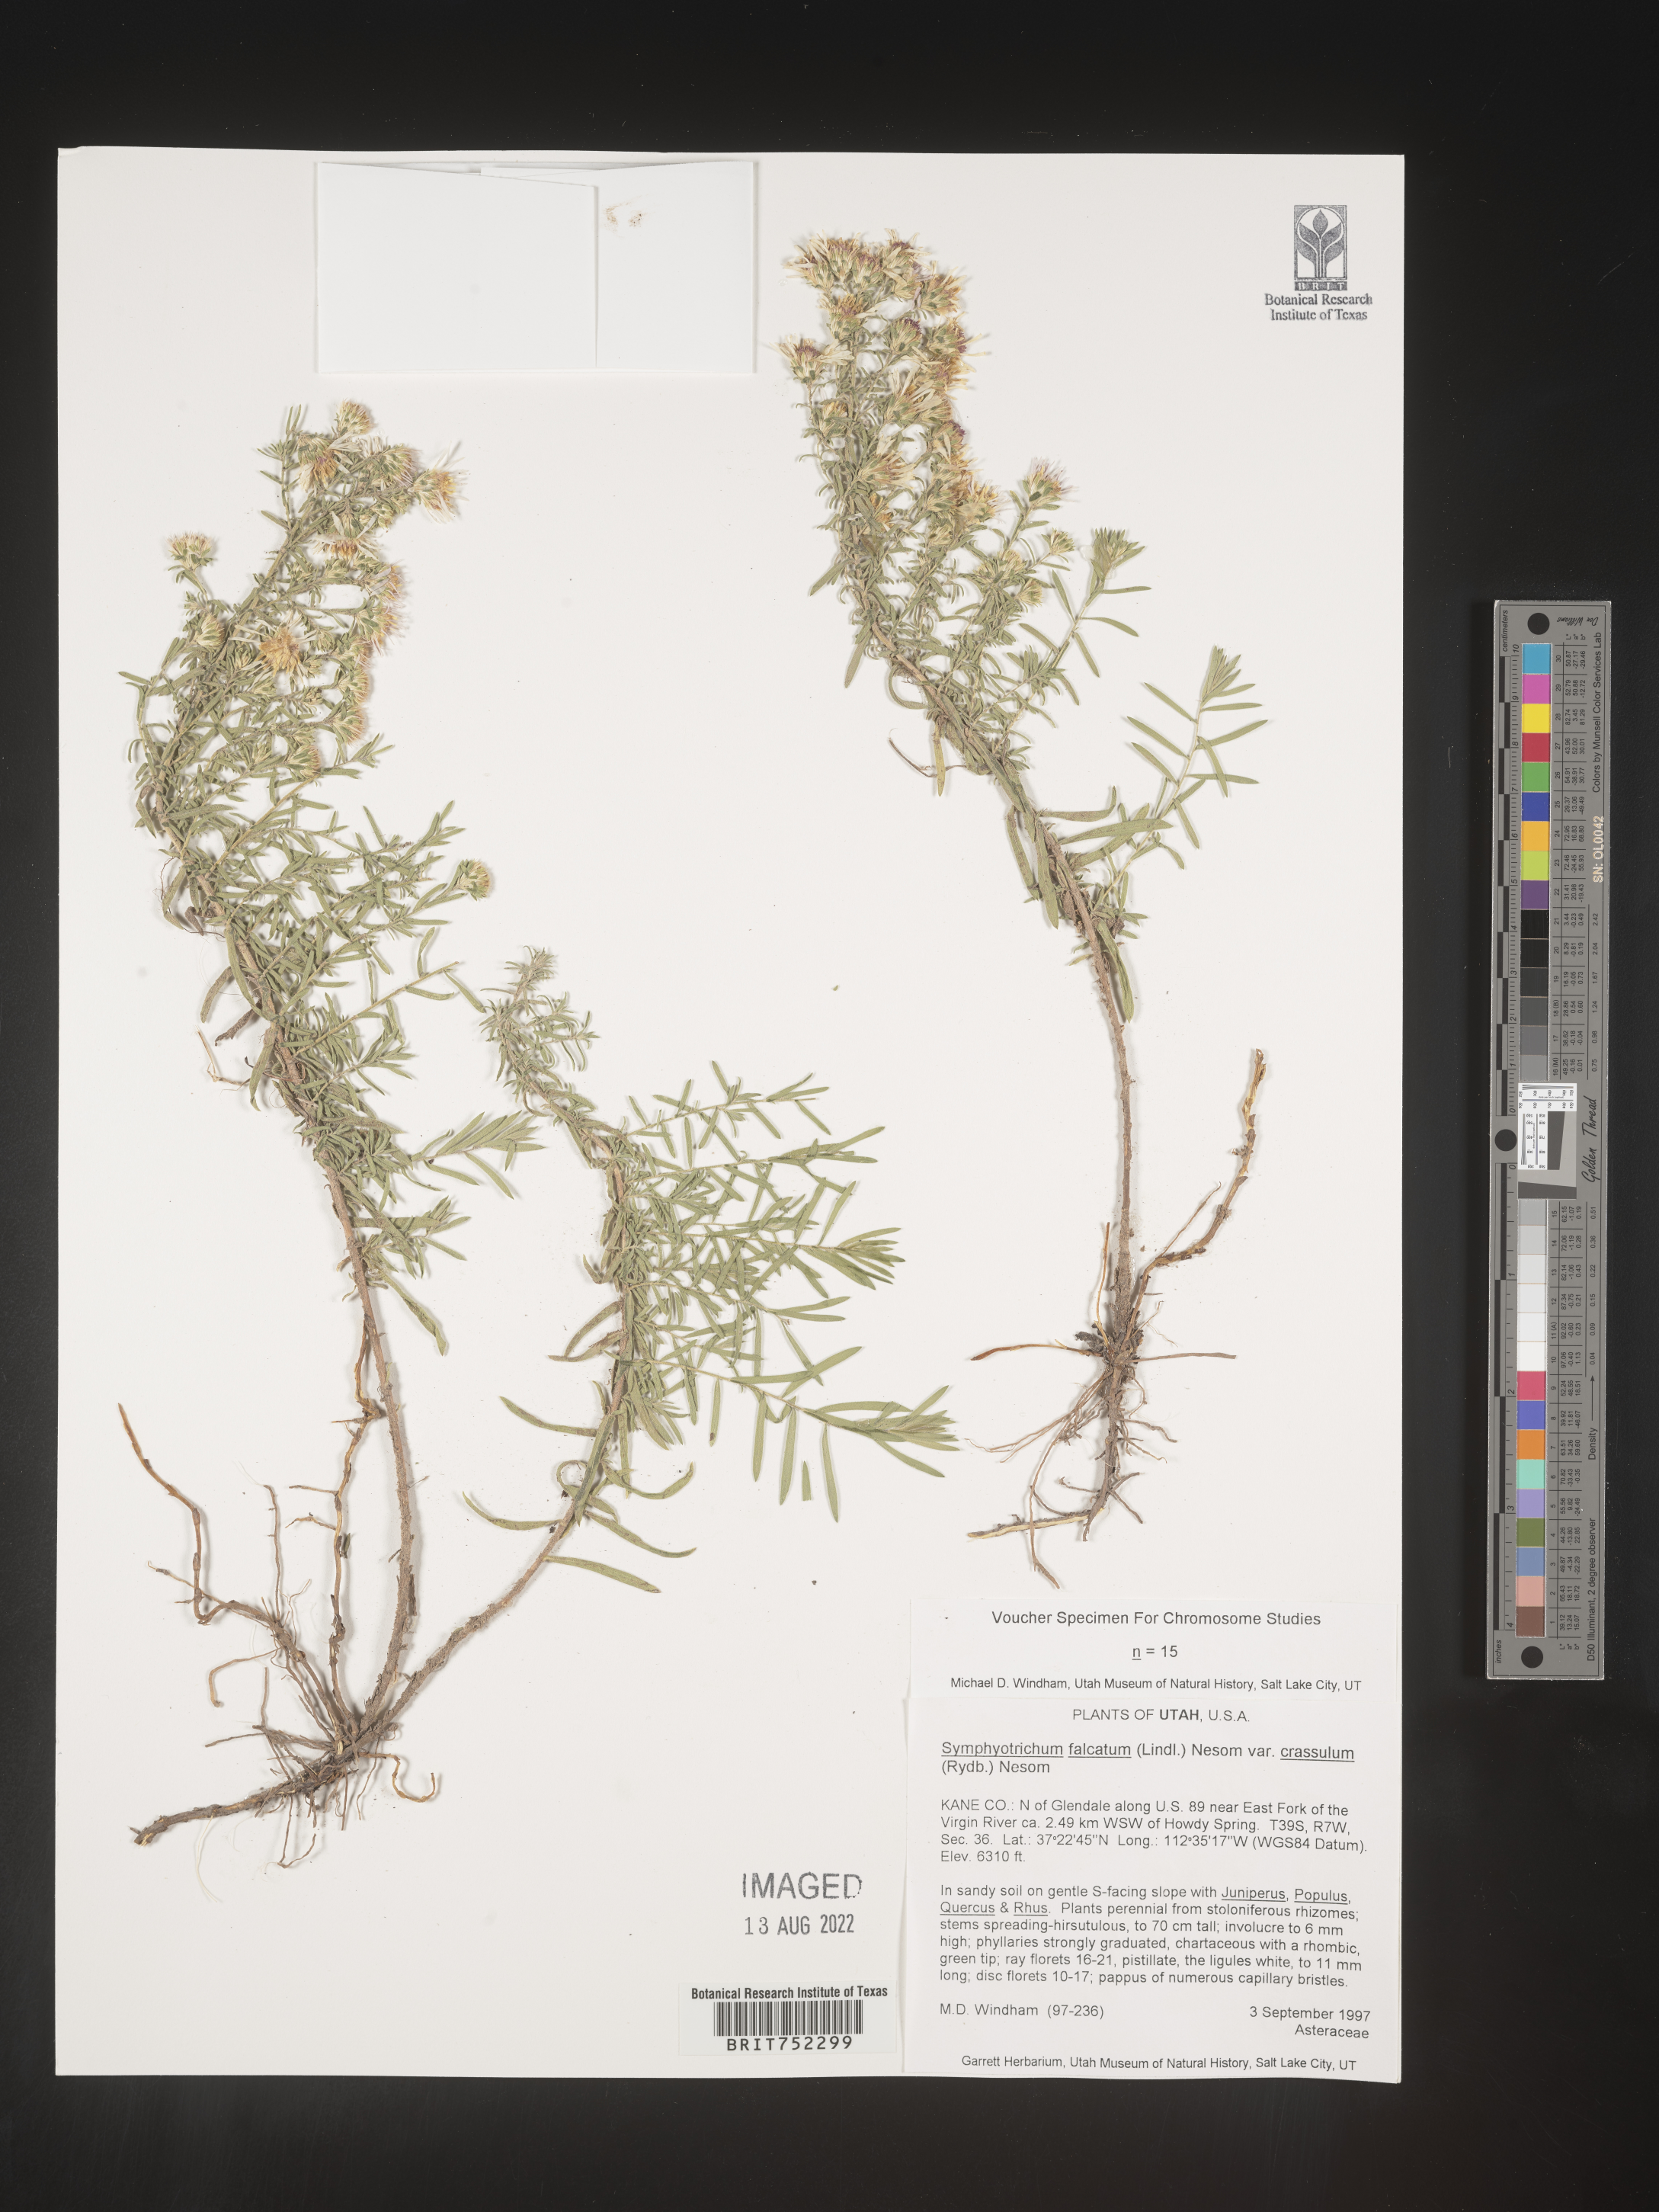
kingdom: Plantae
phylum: Tracheophyta
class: Magnoliopsida
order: Asterales
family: Asteraceae
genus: Symphyotrichum
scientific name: Symphyotrichum falcatum
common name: Creeping white prairie aster
